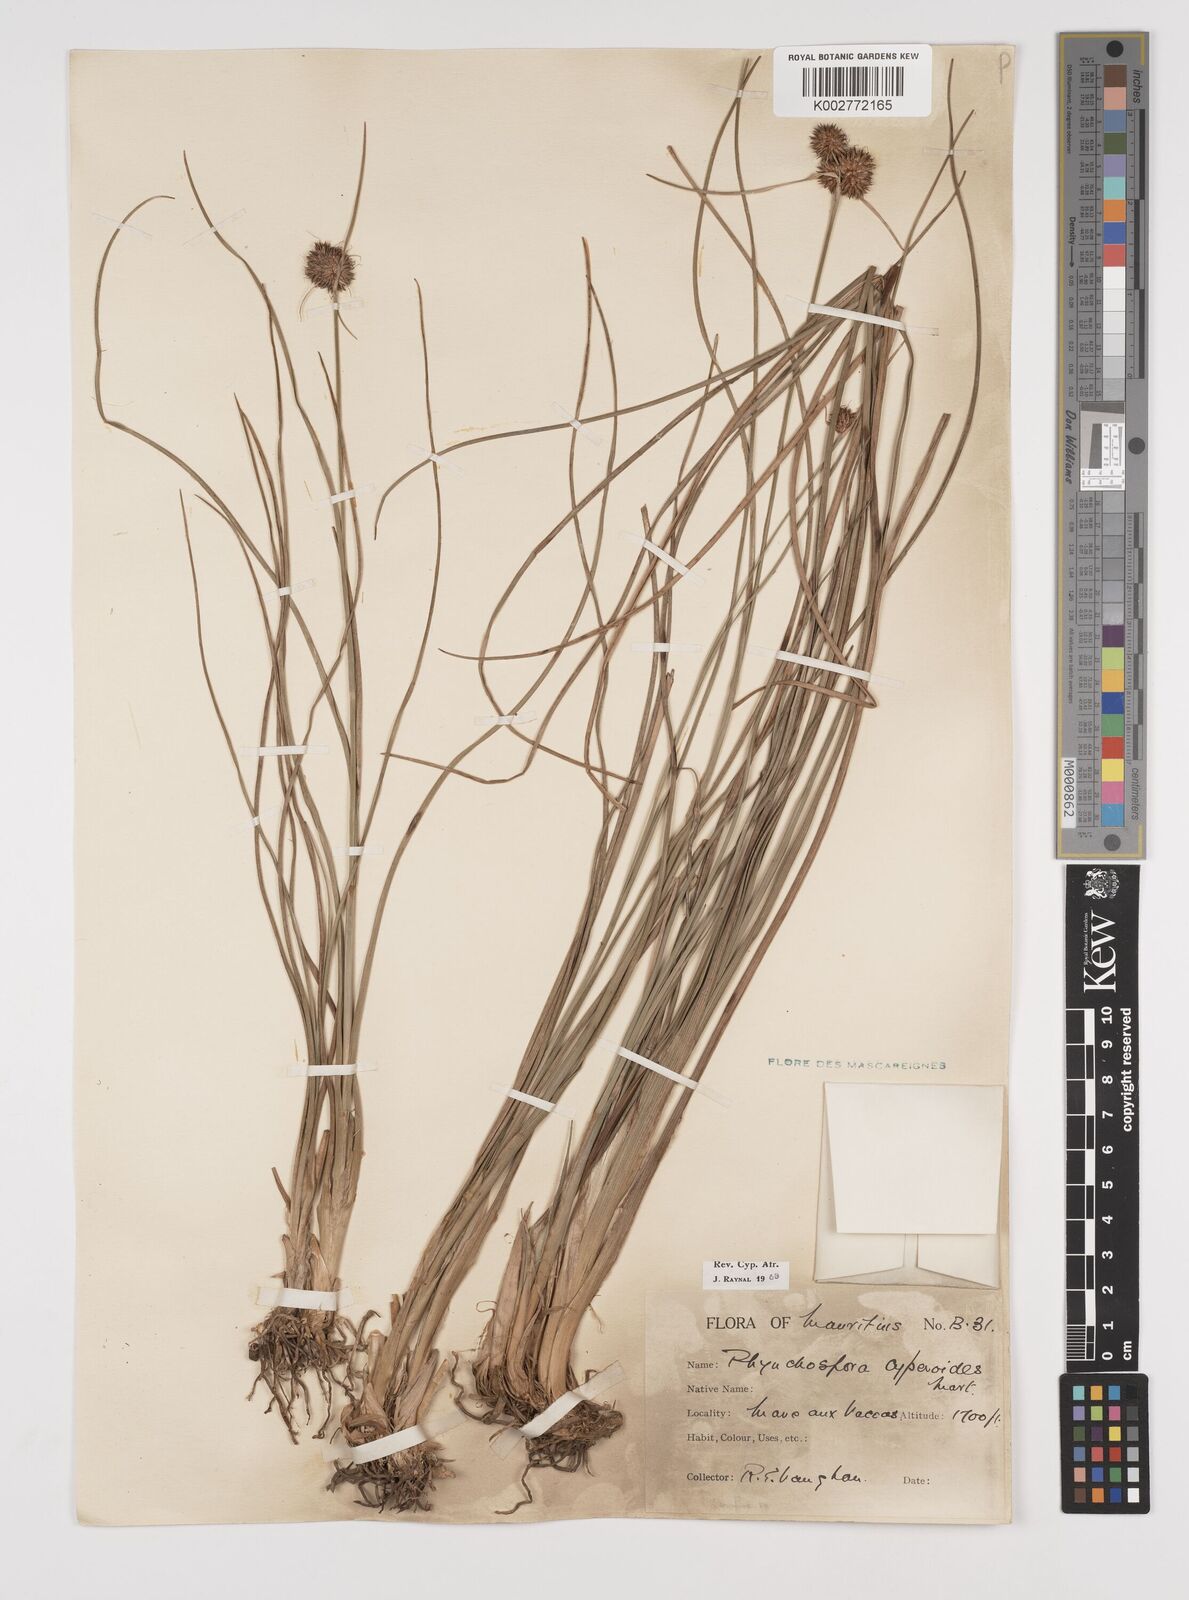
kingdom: Plantae
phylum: Tracheophyta
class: Liliopsida
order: Poales
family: Cyperaceae
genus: Rhynchospora
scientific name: Rhynchospora holoschoenoides
